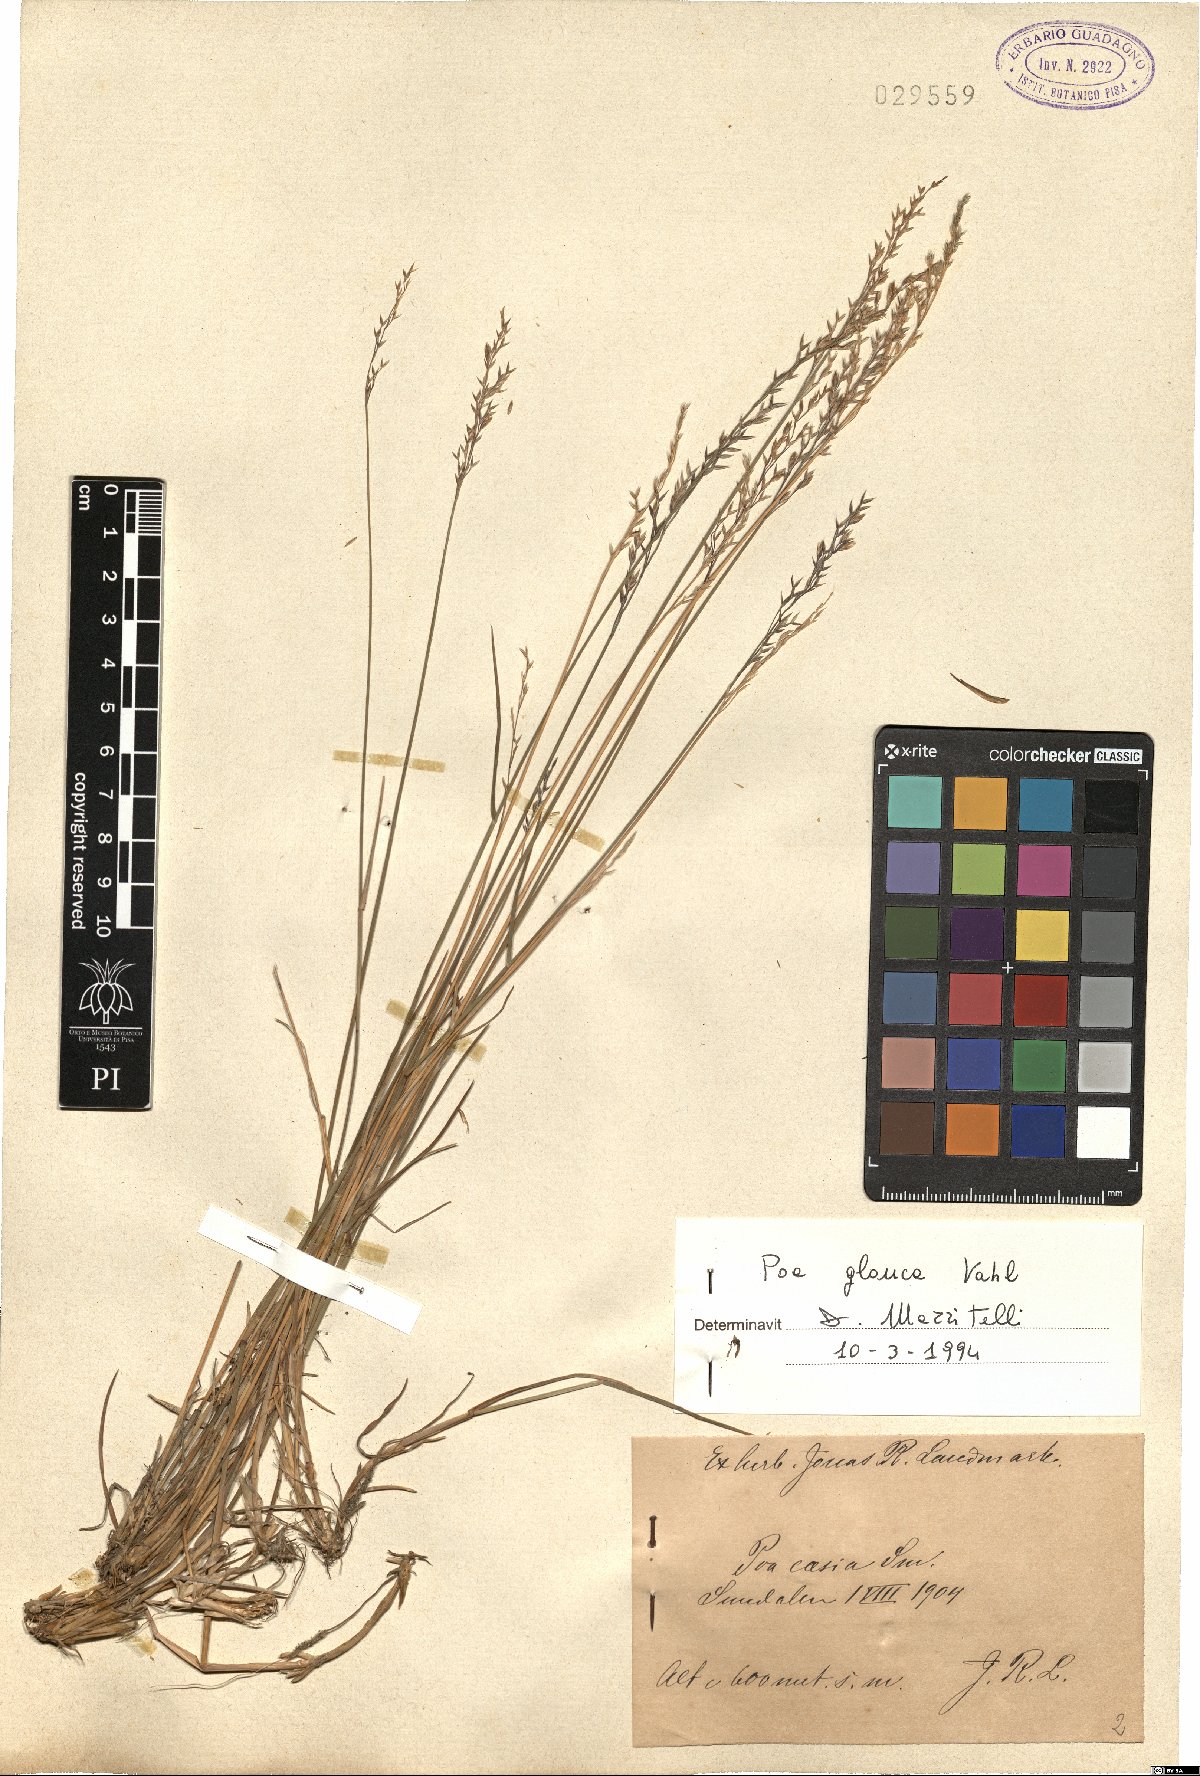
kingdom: Plantae
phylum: Tracheophyta
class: Liliopsida
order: Poales
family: Poaceae
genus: Poa
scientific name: Poa glauca
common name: Glaucous bluegrass
